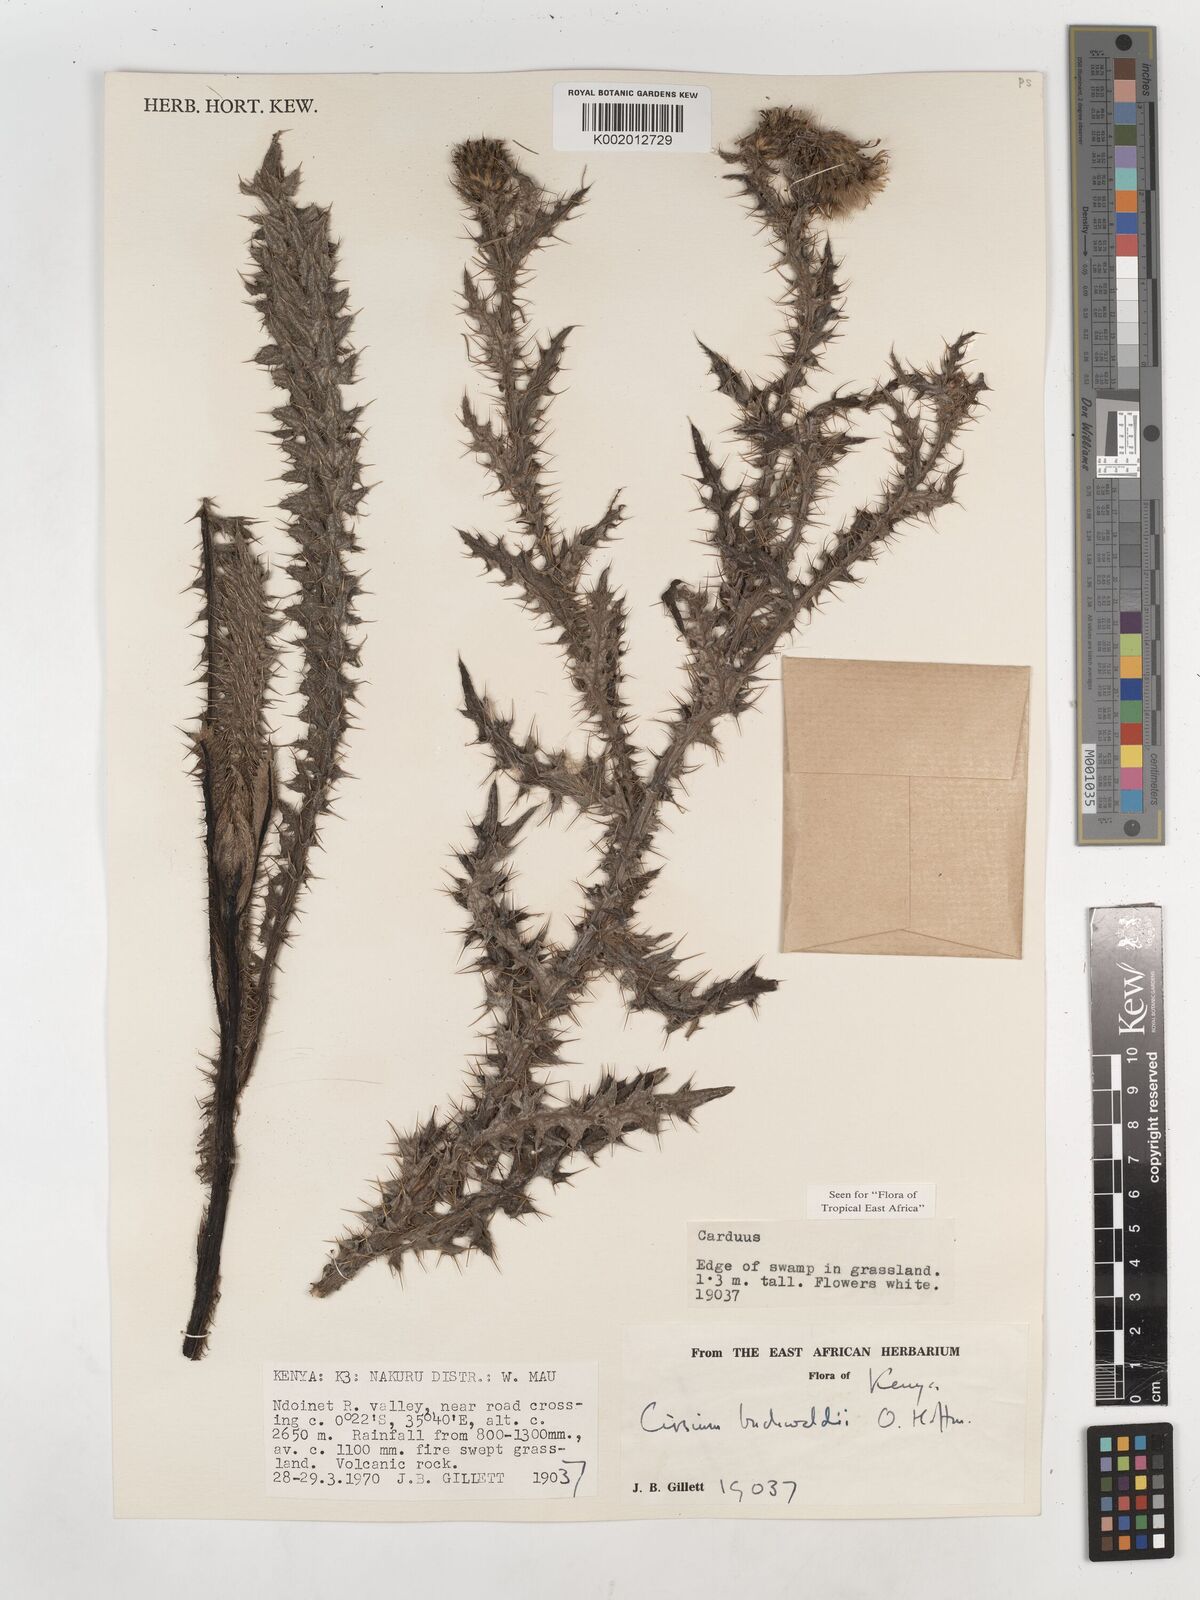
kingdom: Plantae
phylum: Tracheophyta
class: Magnoliopsida
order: Asterales
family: Asteraceae
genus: Cirsium
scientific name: Cirsium buchwaldii
